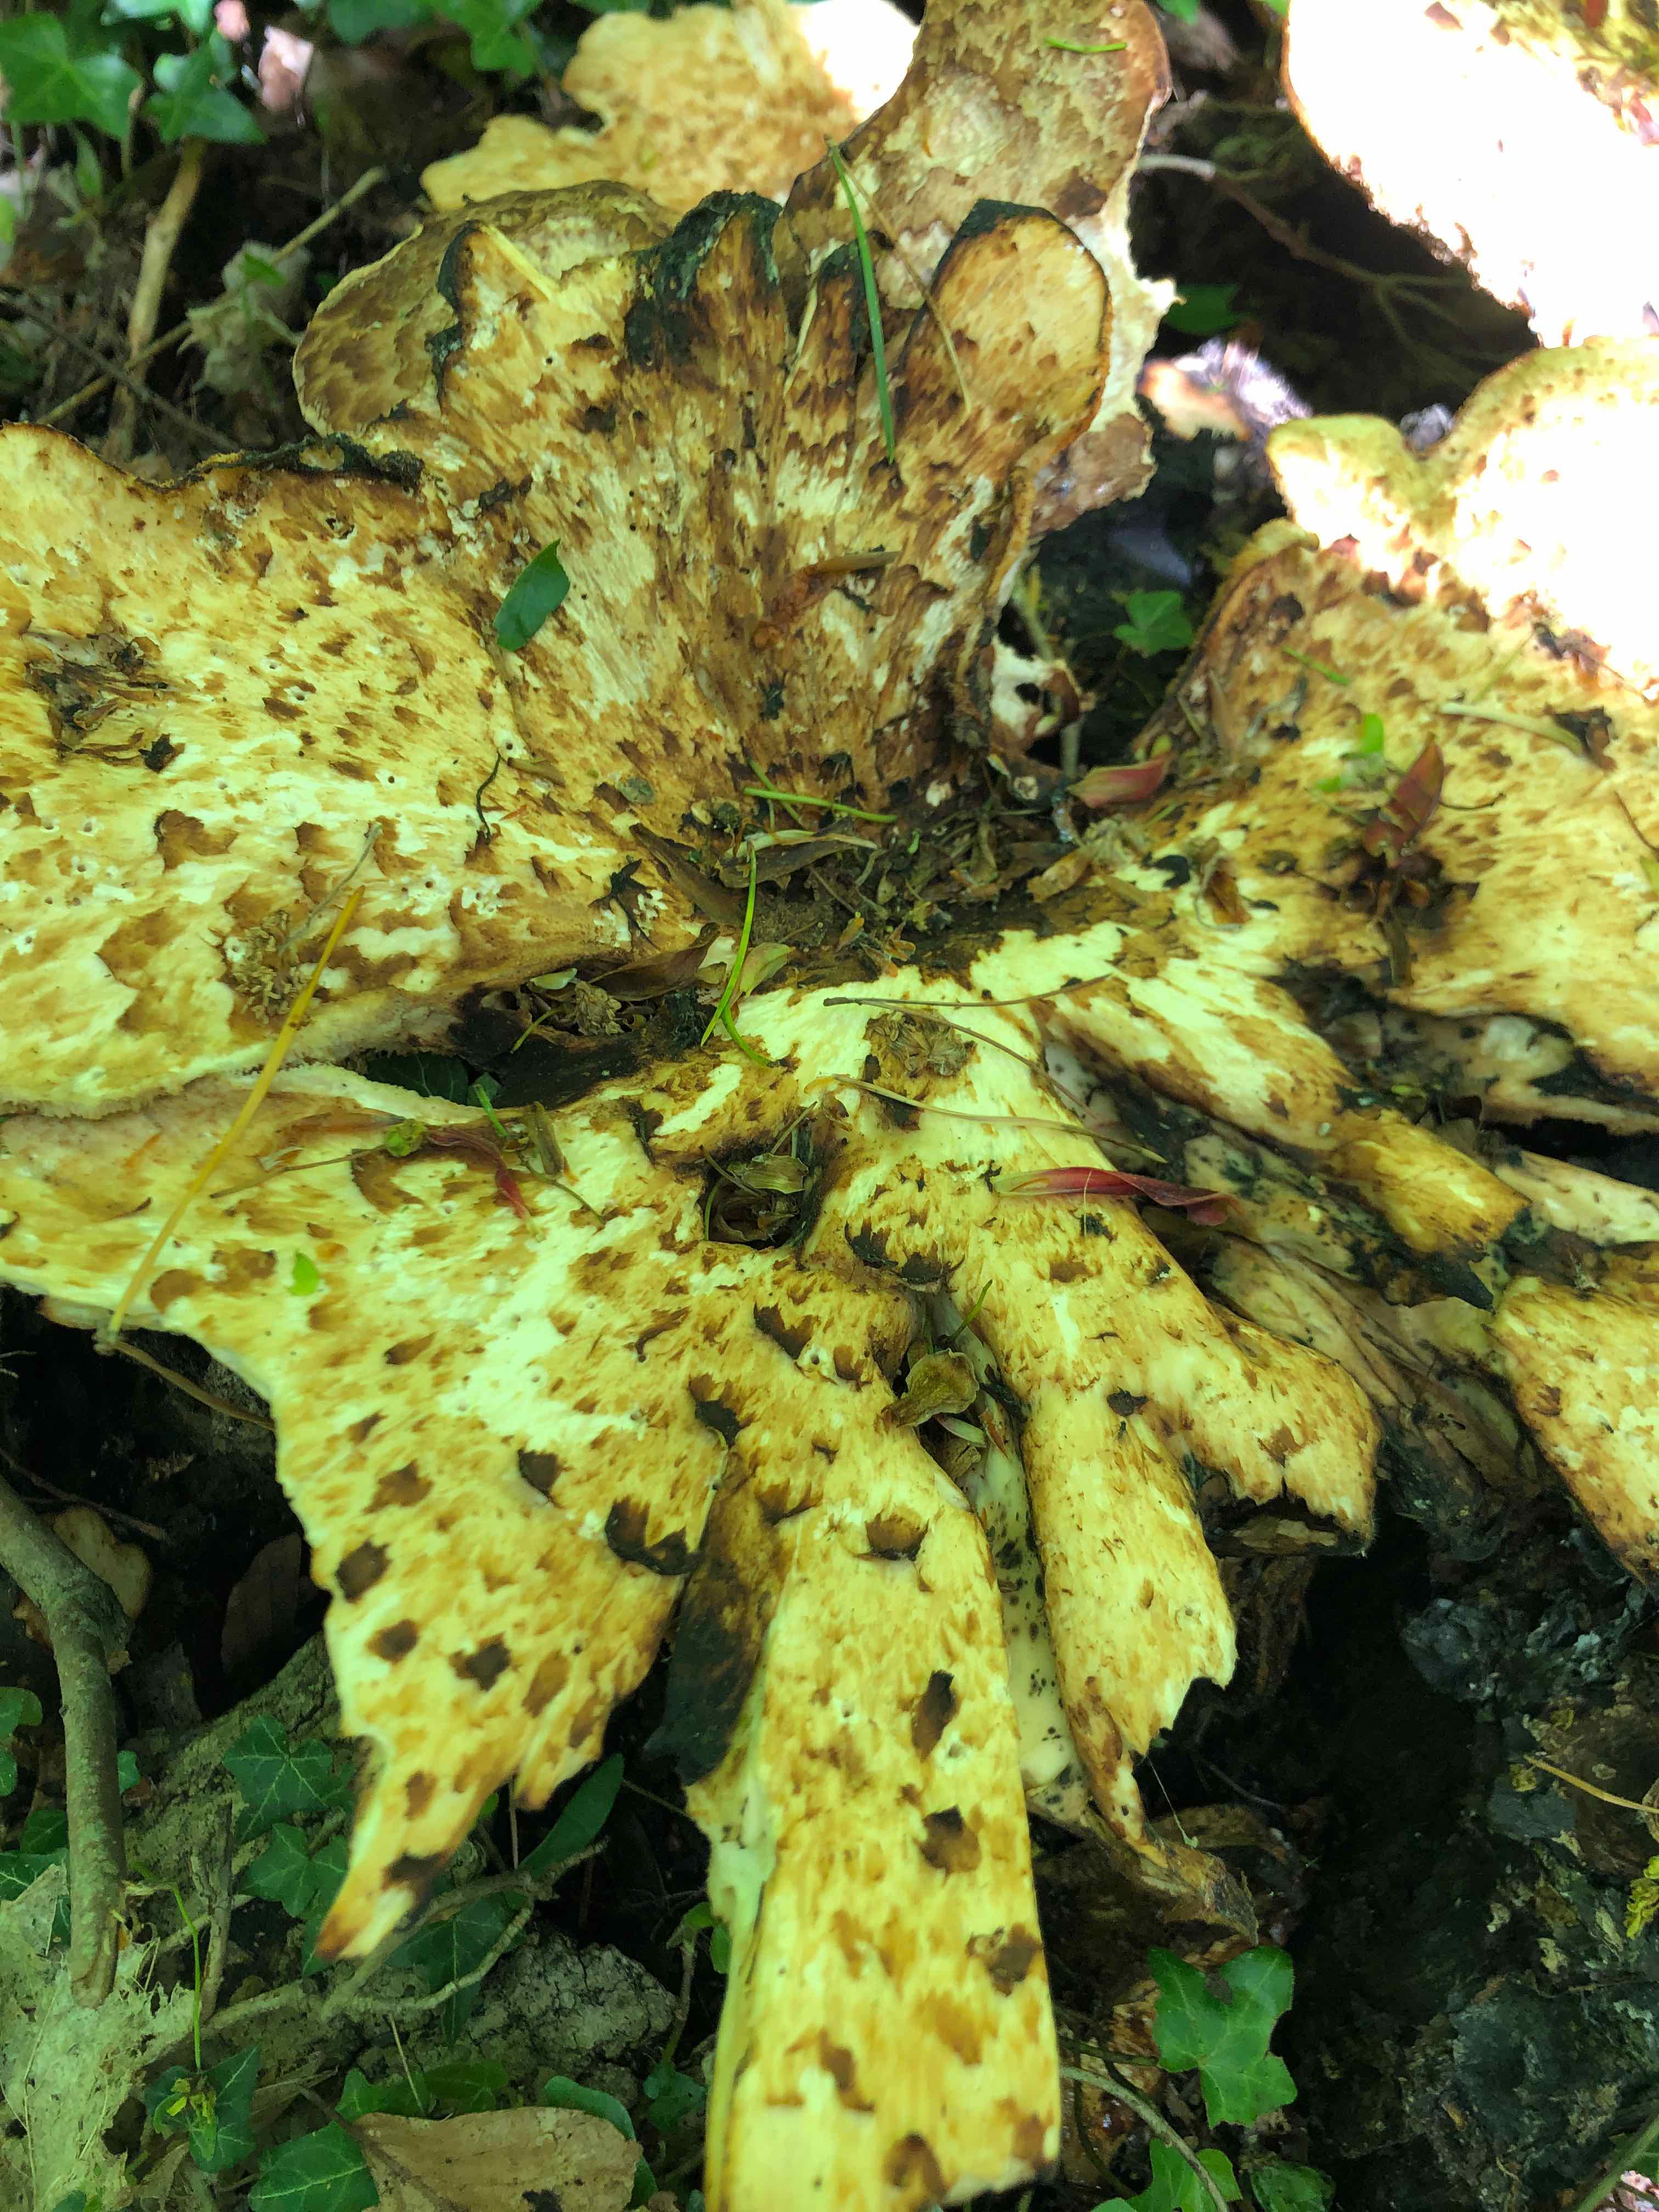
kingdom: Fungi
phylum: Basidiomycota
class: Agaricomycetes
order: Polyporales
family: Polyporaceae
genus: Cerioporus
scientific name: Cerioporus squamosus
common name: skællet stilkporesvamp
